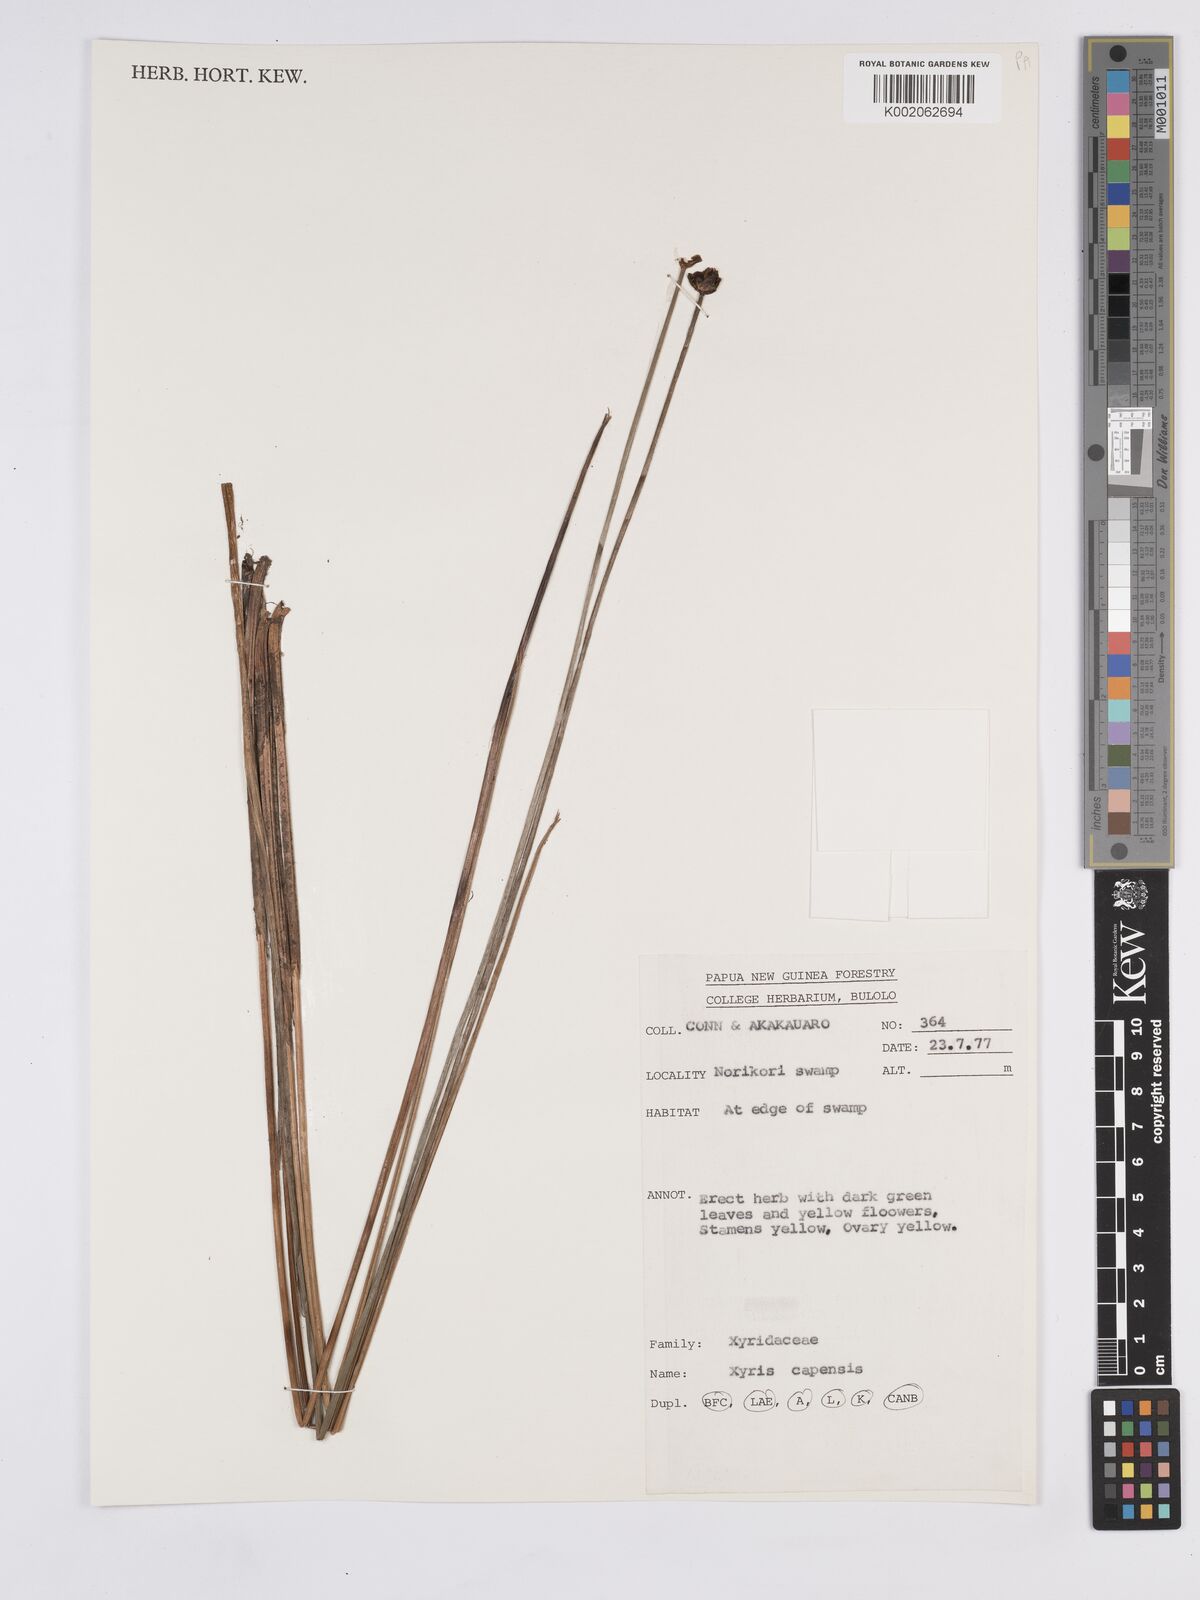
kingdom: Plantae
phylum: Tracheophyta
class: Liliopsida
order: Poales
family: Xyridaceae
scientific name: Xyridaceae
